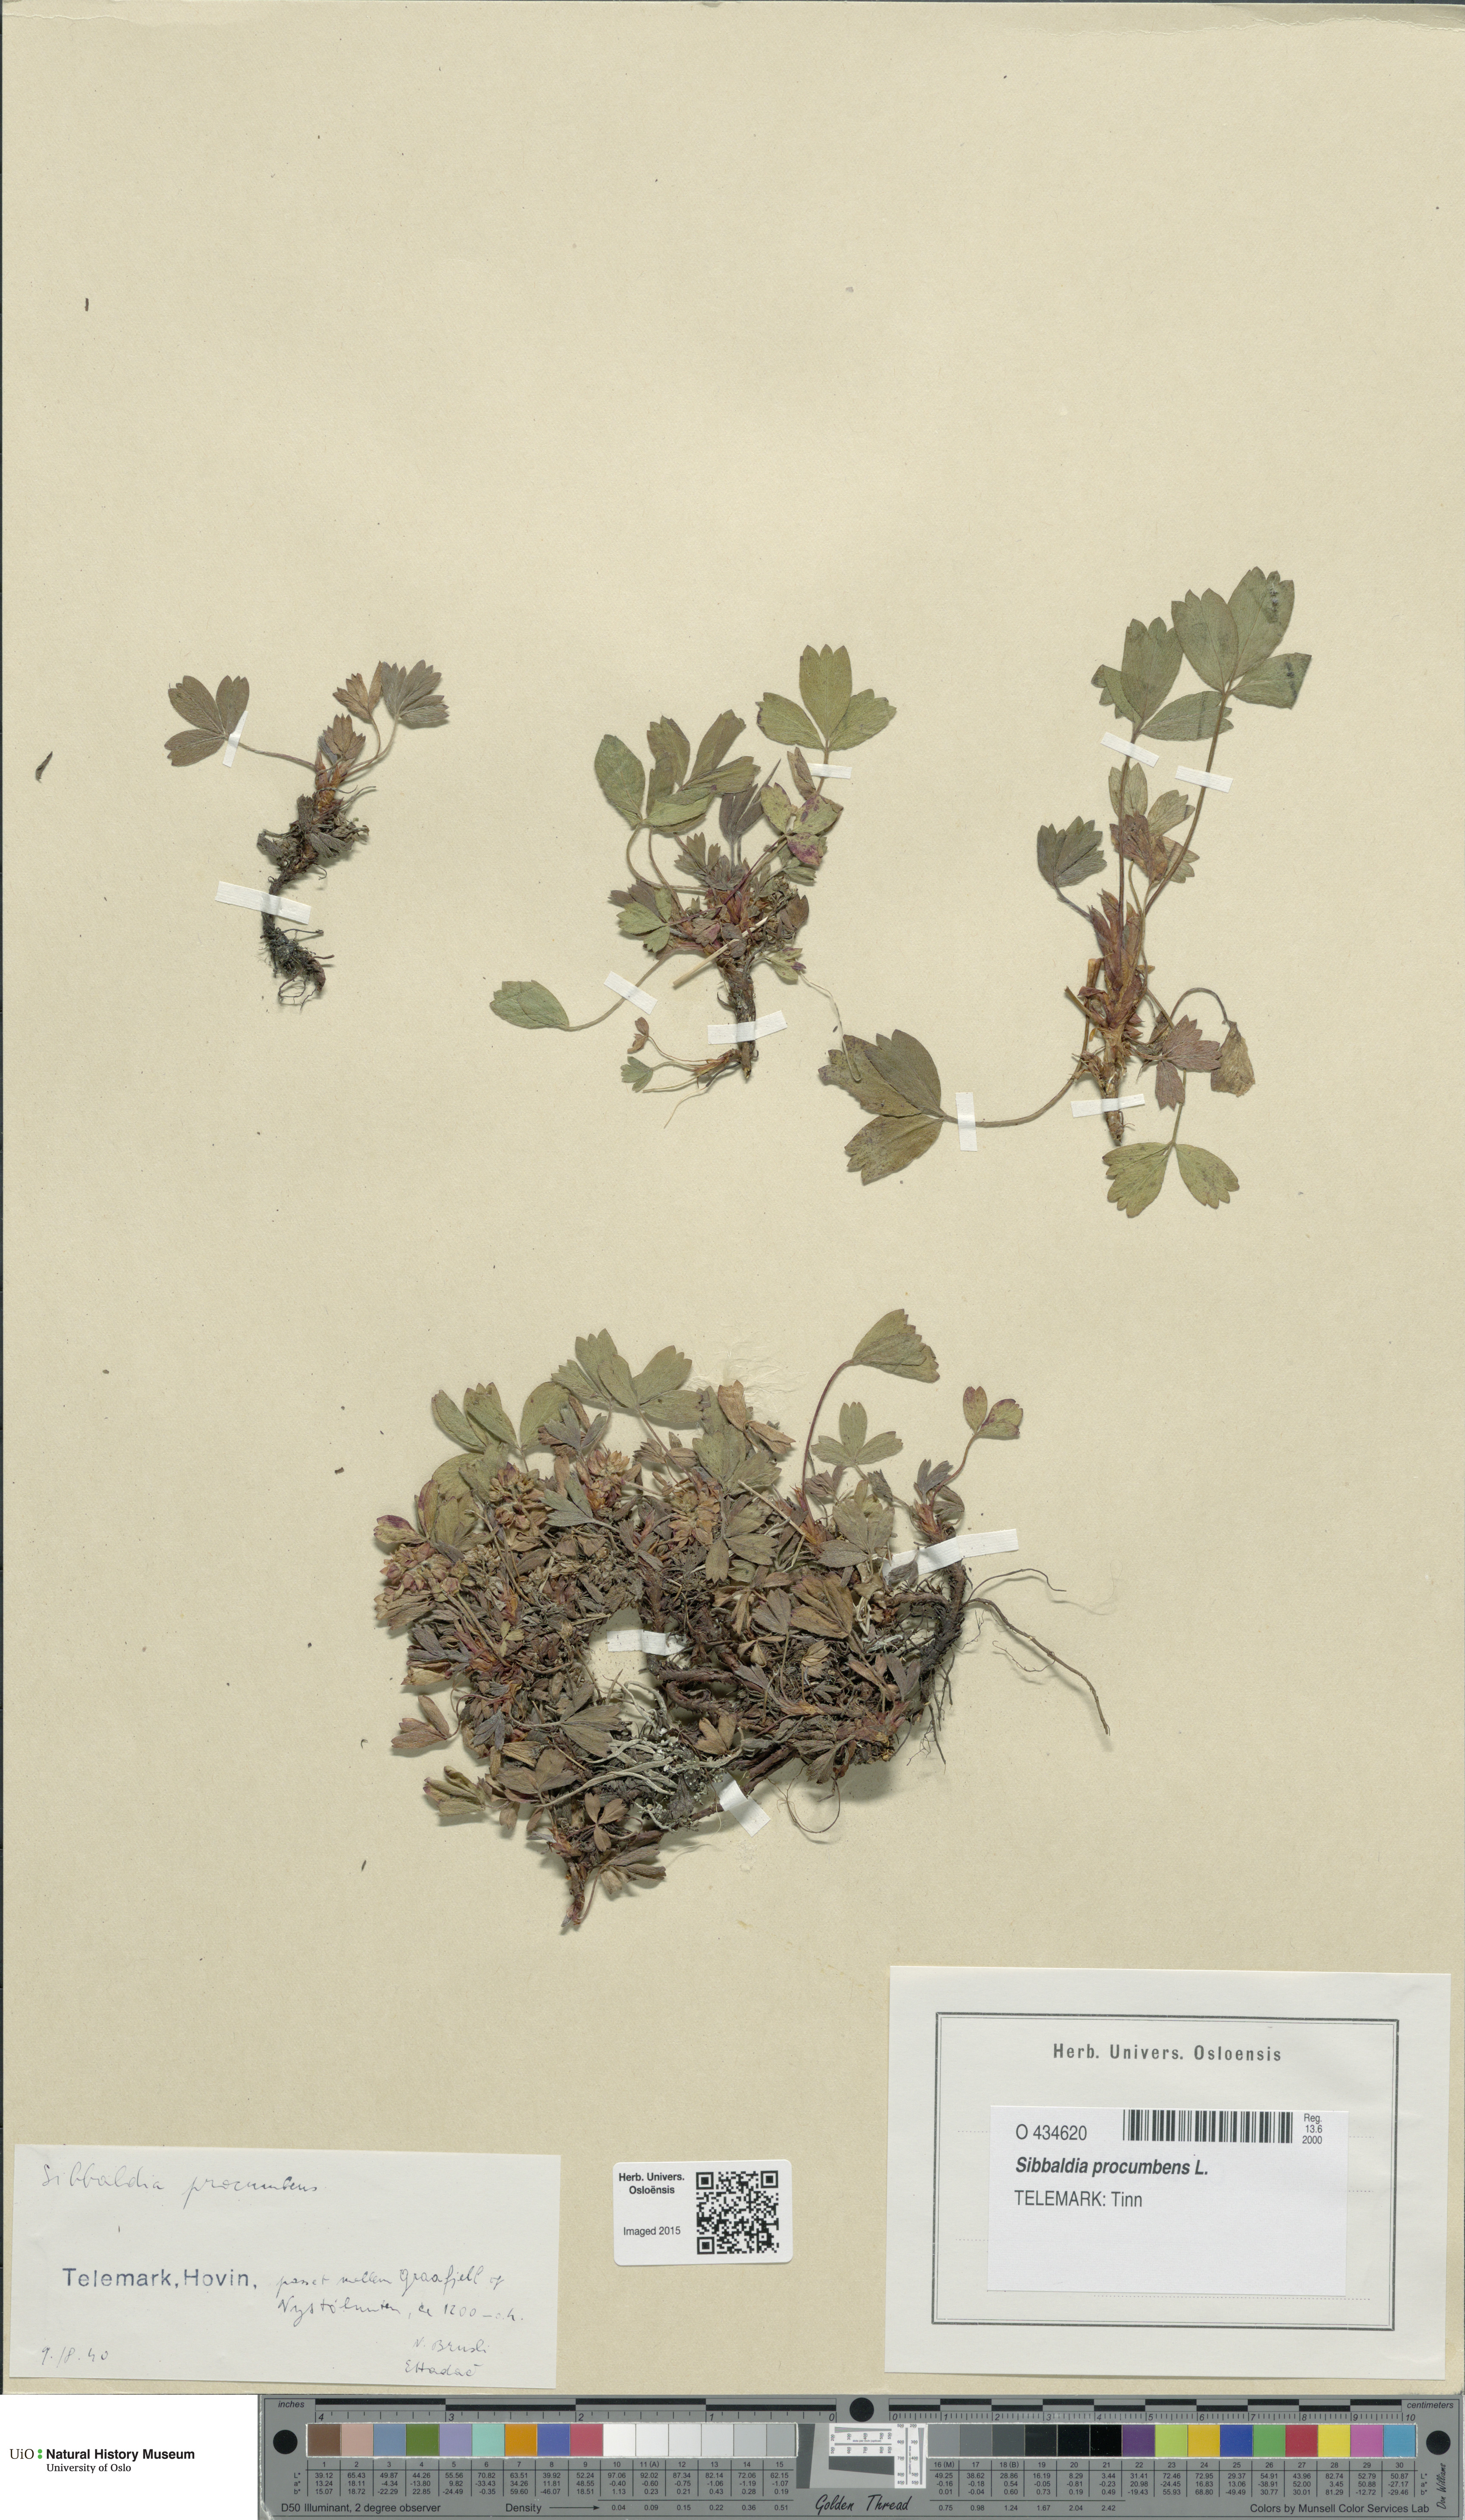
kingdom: Plantae
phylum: Tracheophyta
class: Magnoliopsida
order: Rosales
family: Rosaceae
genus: Sibbaldia
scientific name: Sibbaldia procumbens
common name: Creeping sibbaldia
